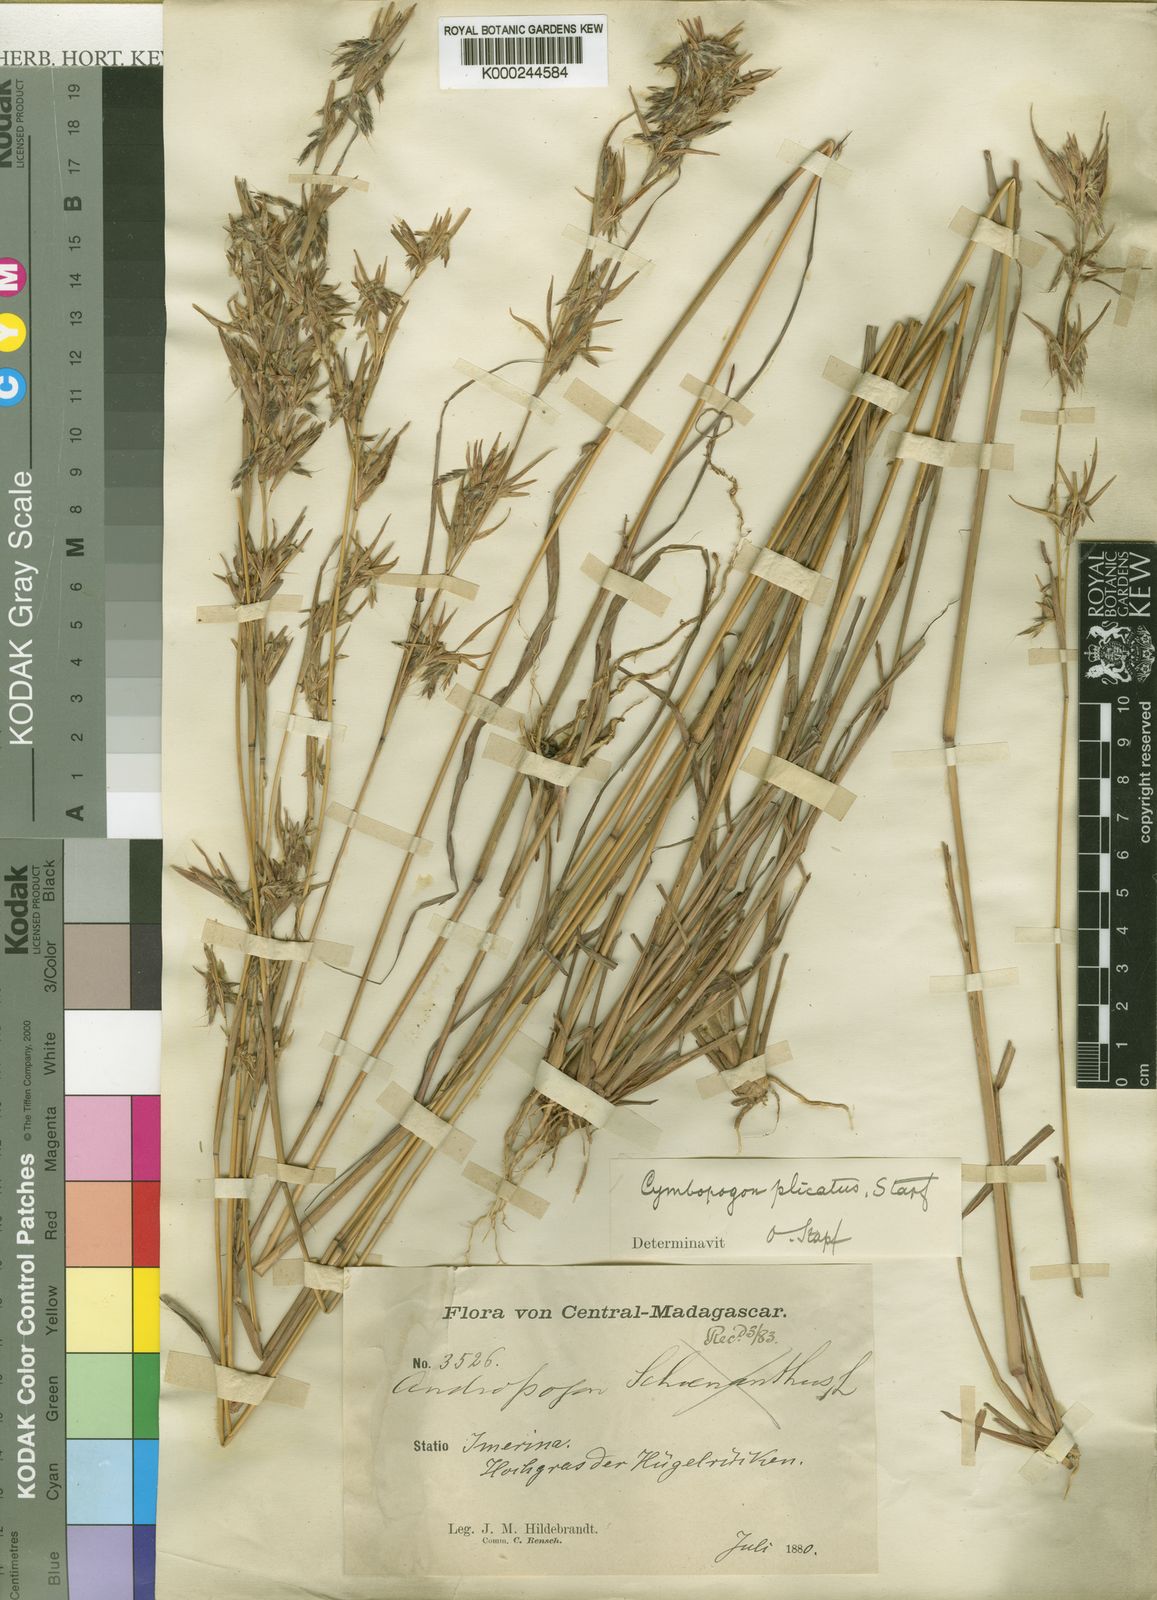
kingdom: Plantae
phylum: Tracheophyta
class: Liliopsida
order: Poales
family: Poaceae
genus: Cymbopogon
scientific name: Cymbopogon caesius
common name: Kachi grass
